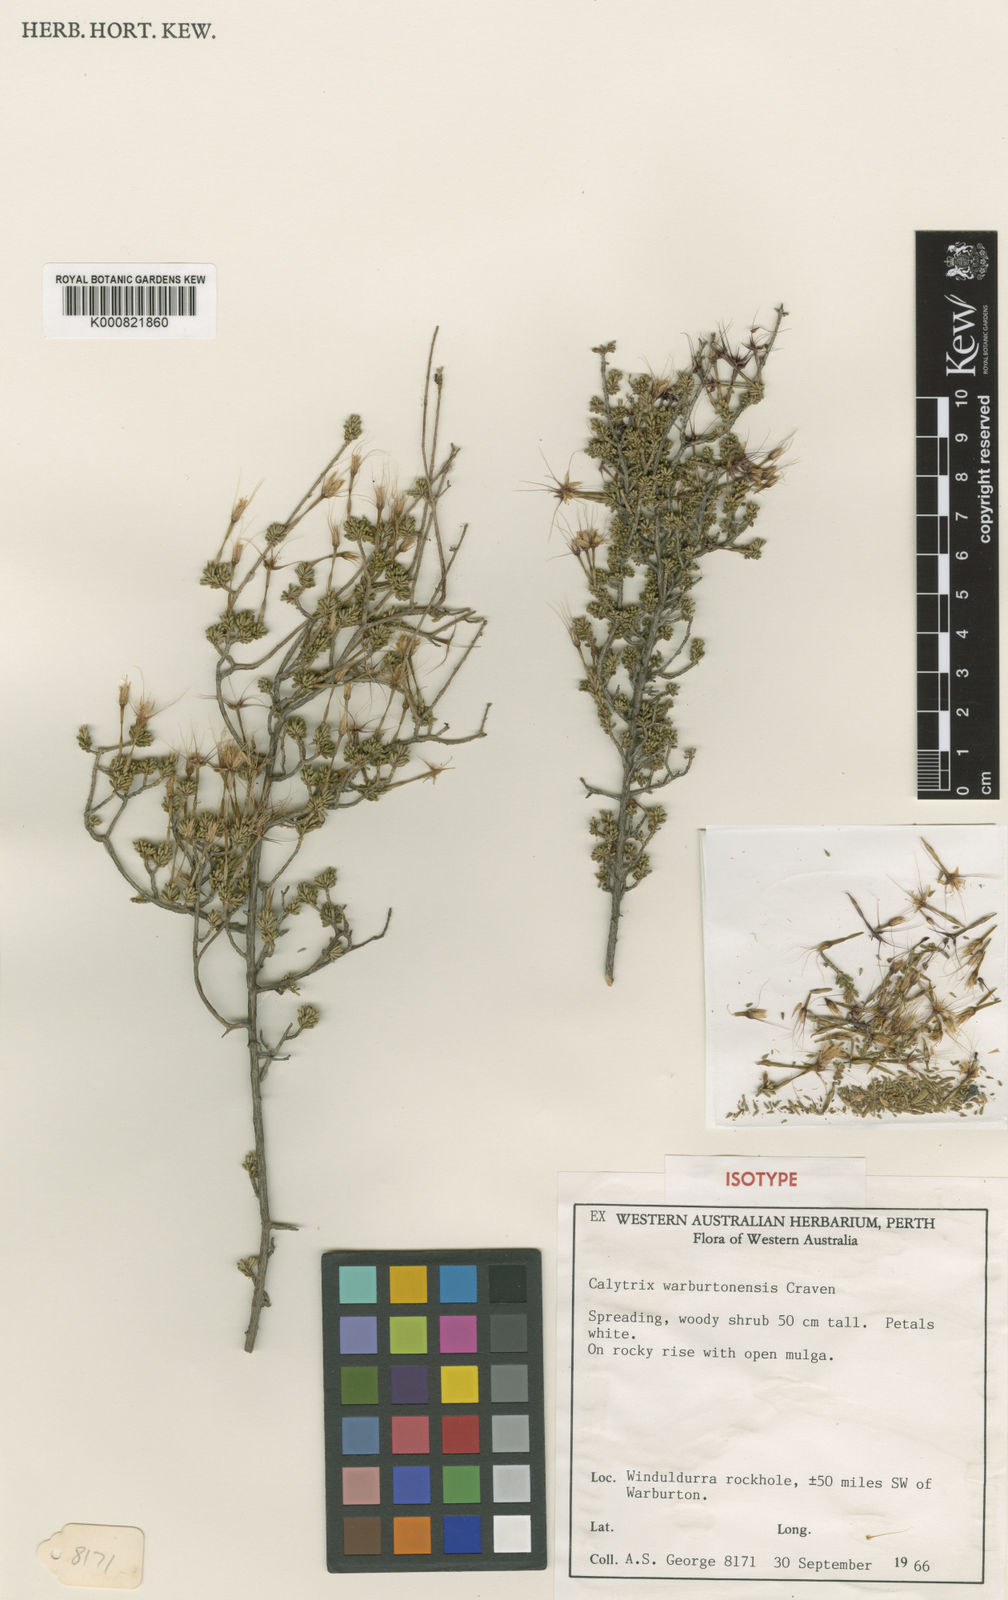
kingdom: Plantae
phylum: Tracheophyta
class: Magnoliopsida
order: Myrtales
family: Myrtaceae
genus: Calytrix
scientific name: Calytrix warburtonensis
